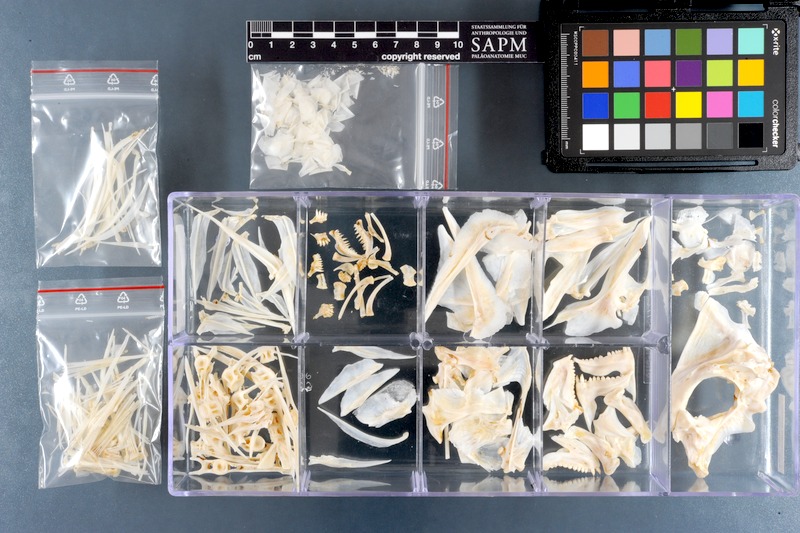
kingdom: Animalia
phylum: Chordata
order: Perciformes
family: Sparidae
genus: Argyrops
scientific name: Argyrops spinifer
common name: King soldier bream
